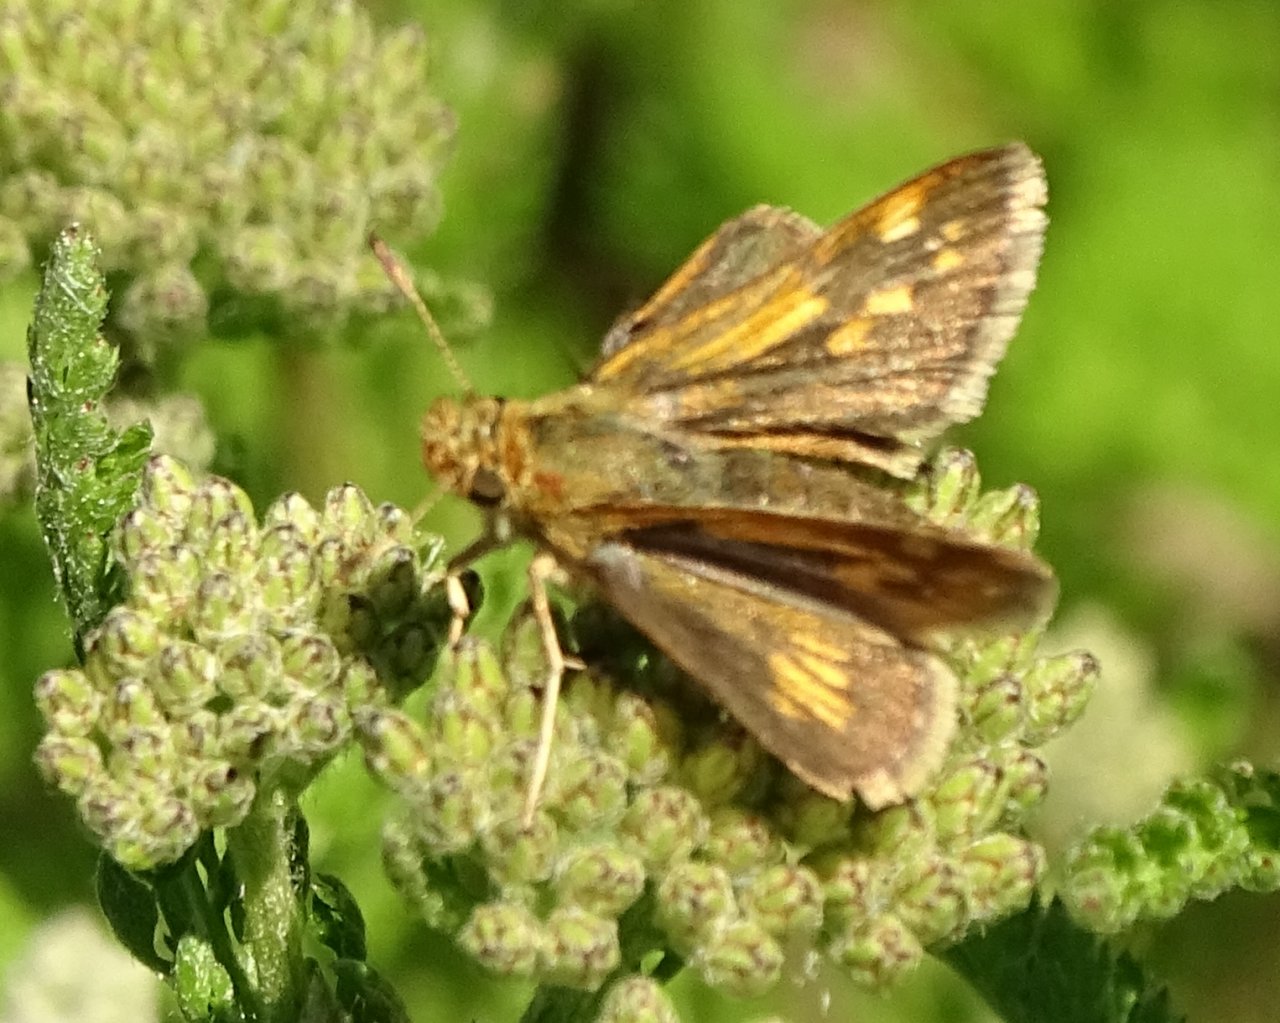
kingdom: Animalia
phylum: Arthropoda
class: Insecta
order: Lepidoptera
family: Hesperiidae
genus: Polites
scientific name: Polites coras
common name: Peck's Skipper
